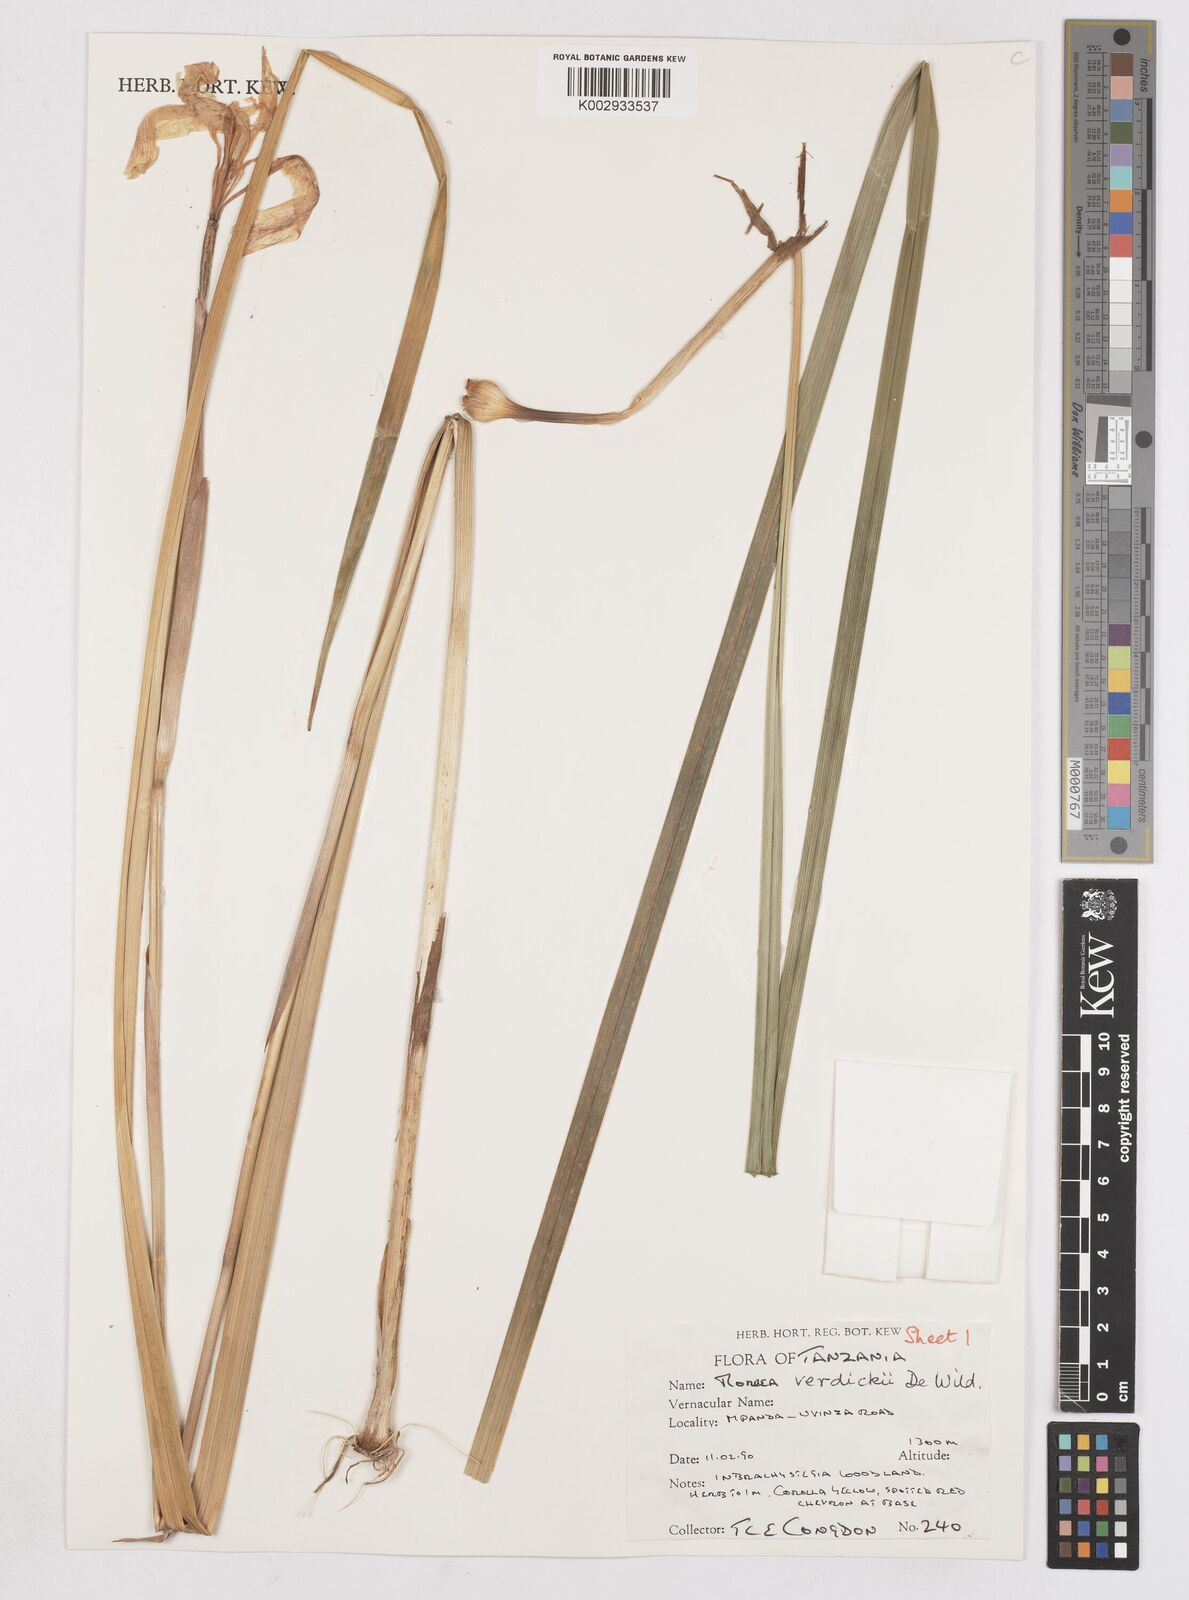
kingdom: Plantae
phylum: Tracheophyta
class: Liliopsida
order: Asparagales
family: Iridaceae
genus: Moraea
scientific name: Moraea verdickii
